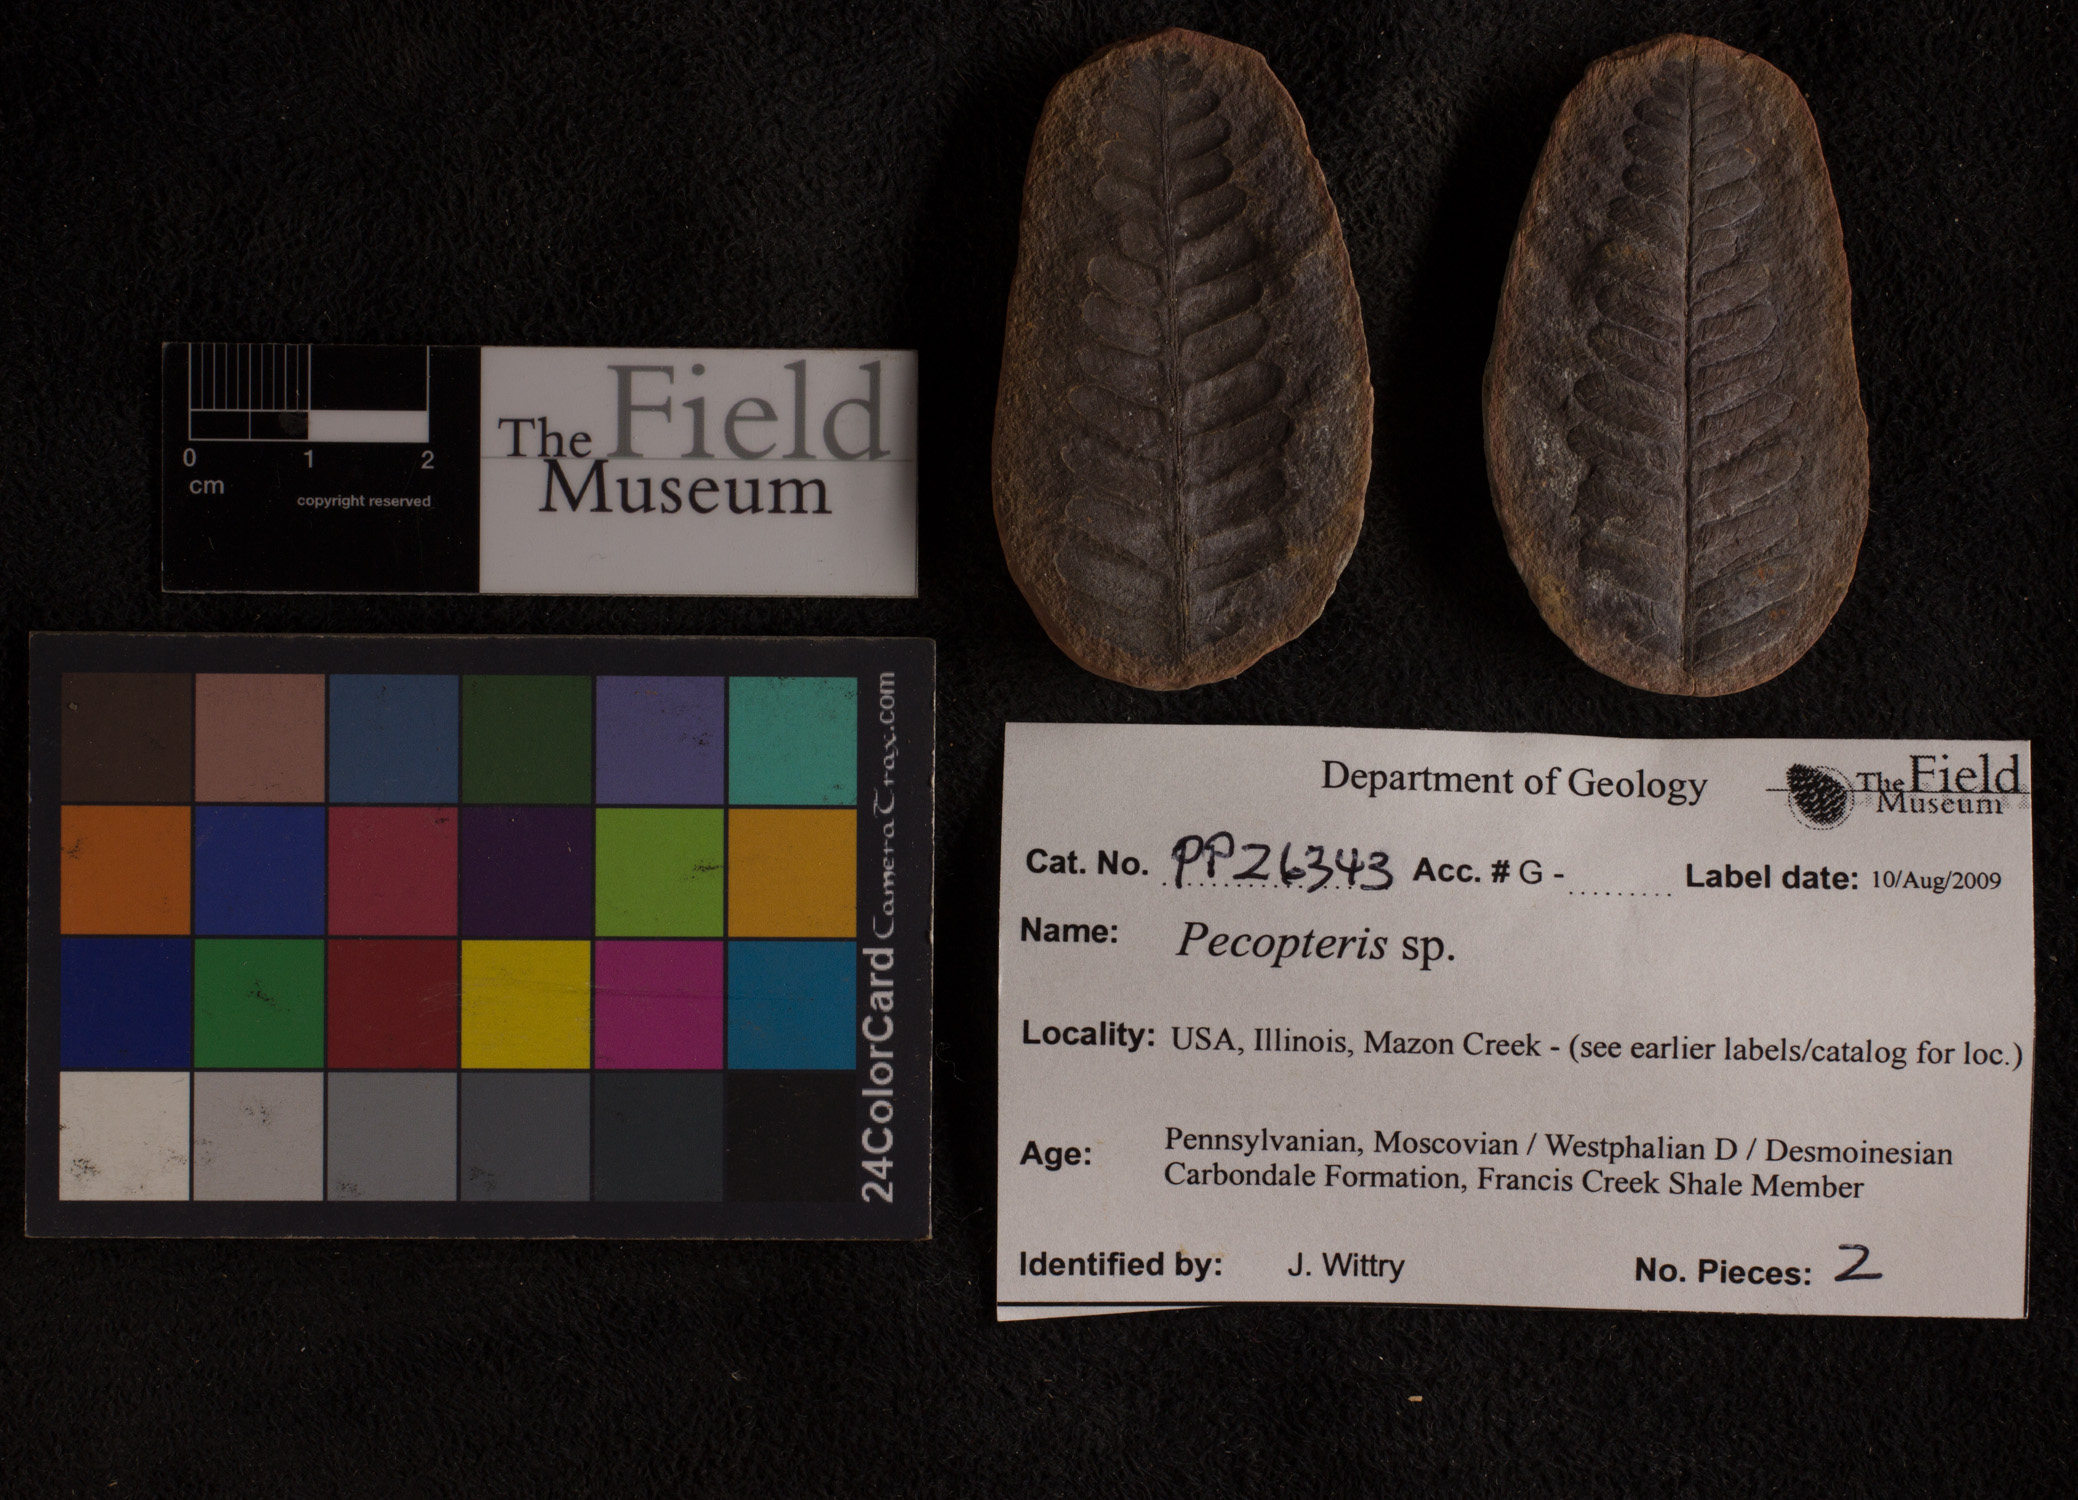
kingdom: Plantae
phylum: Tracheophyta
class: Polypodiopsida
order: Marattiales
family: Asterothecaceae
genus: Pecopteris
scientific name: Pecopteris
